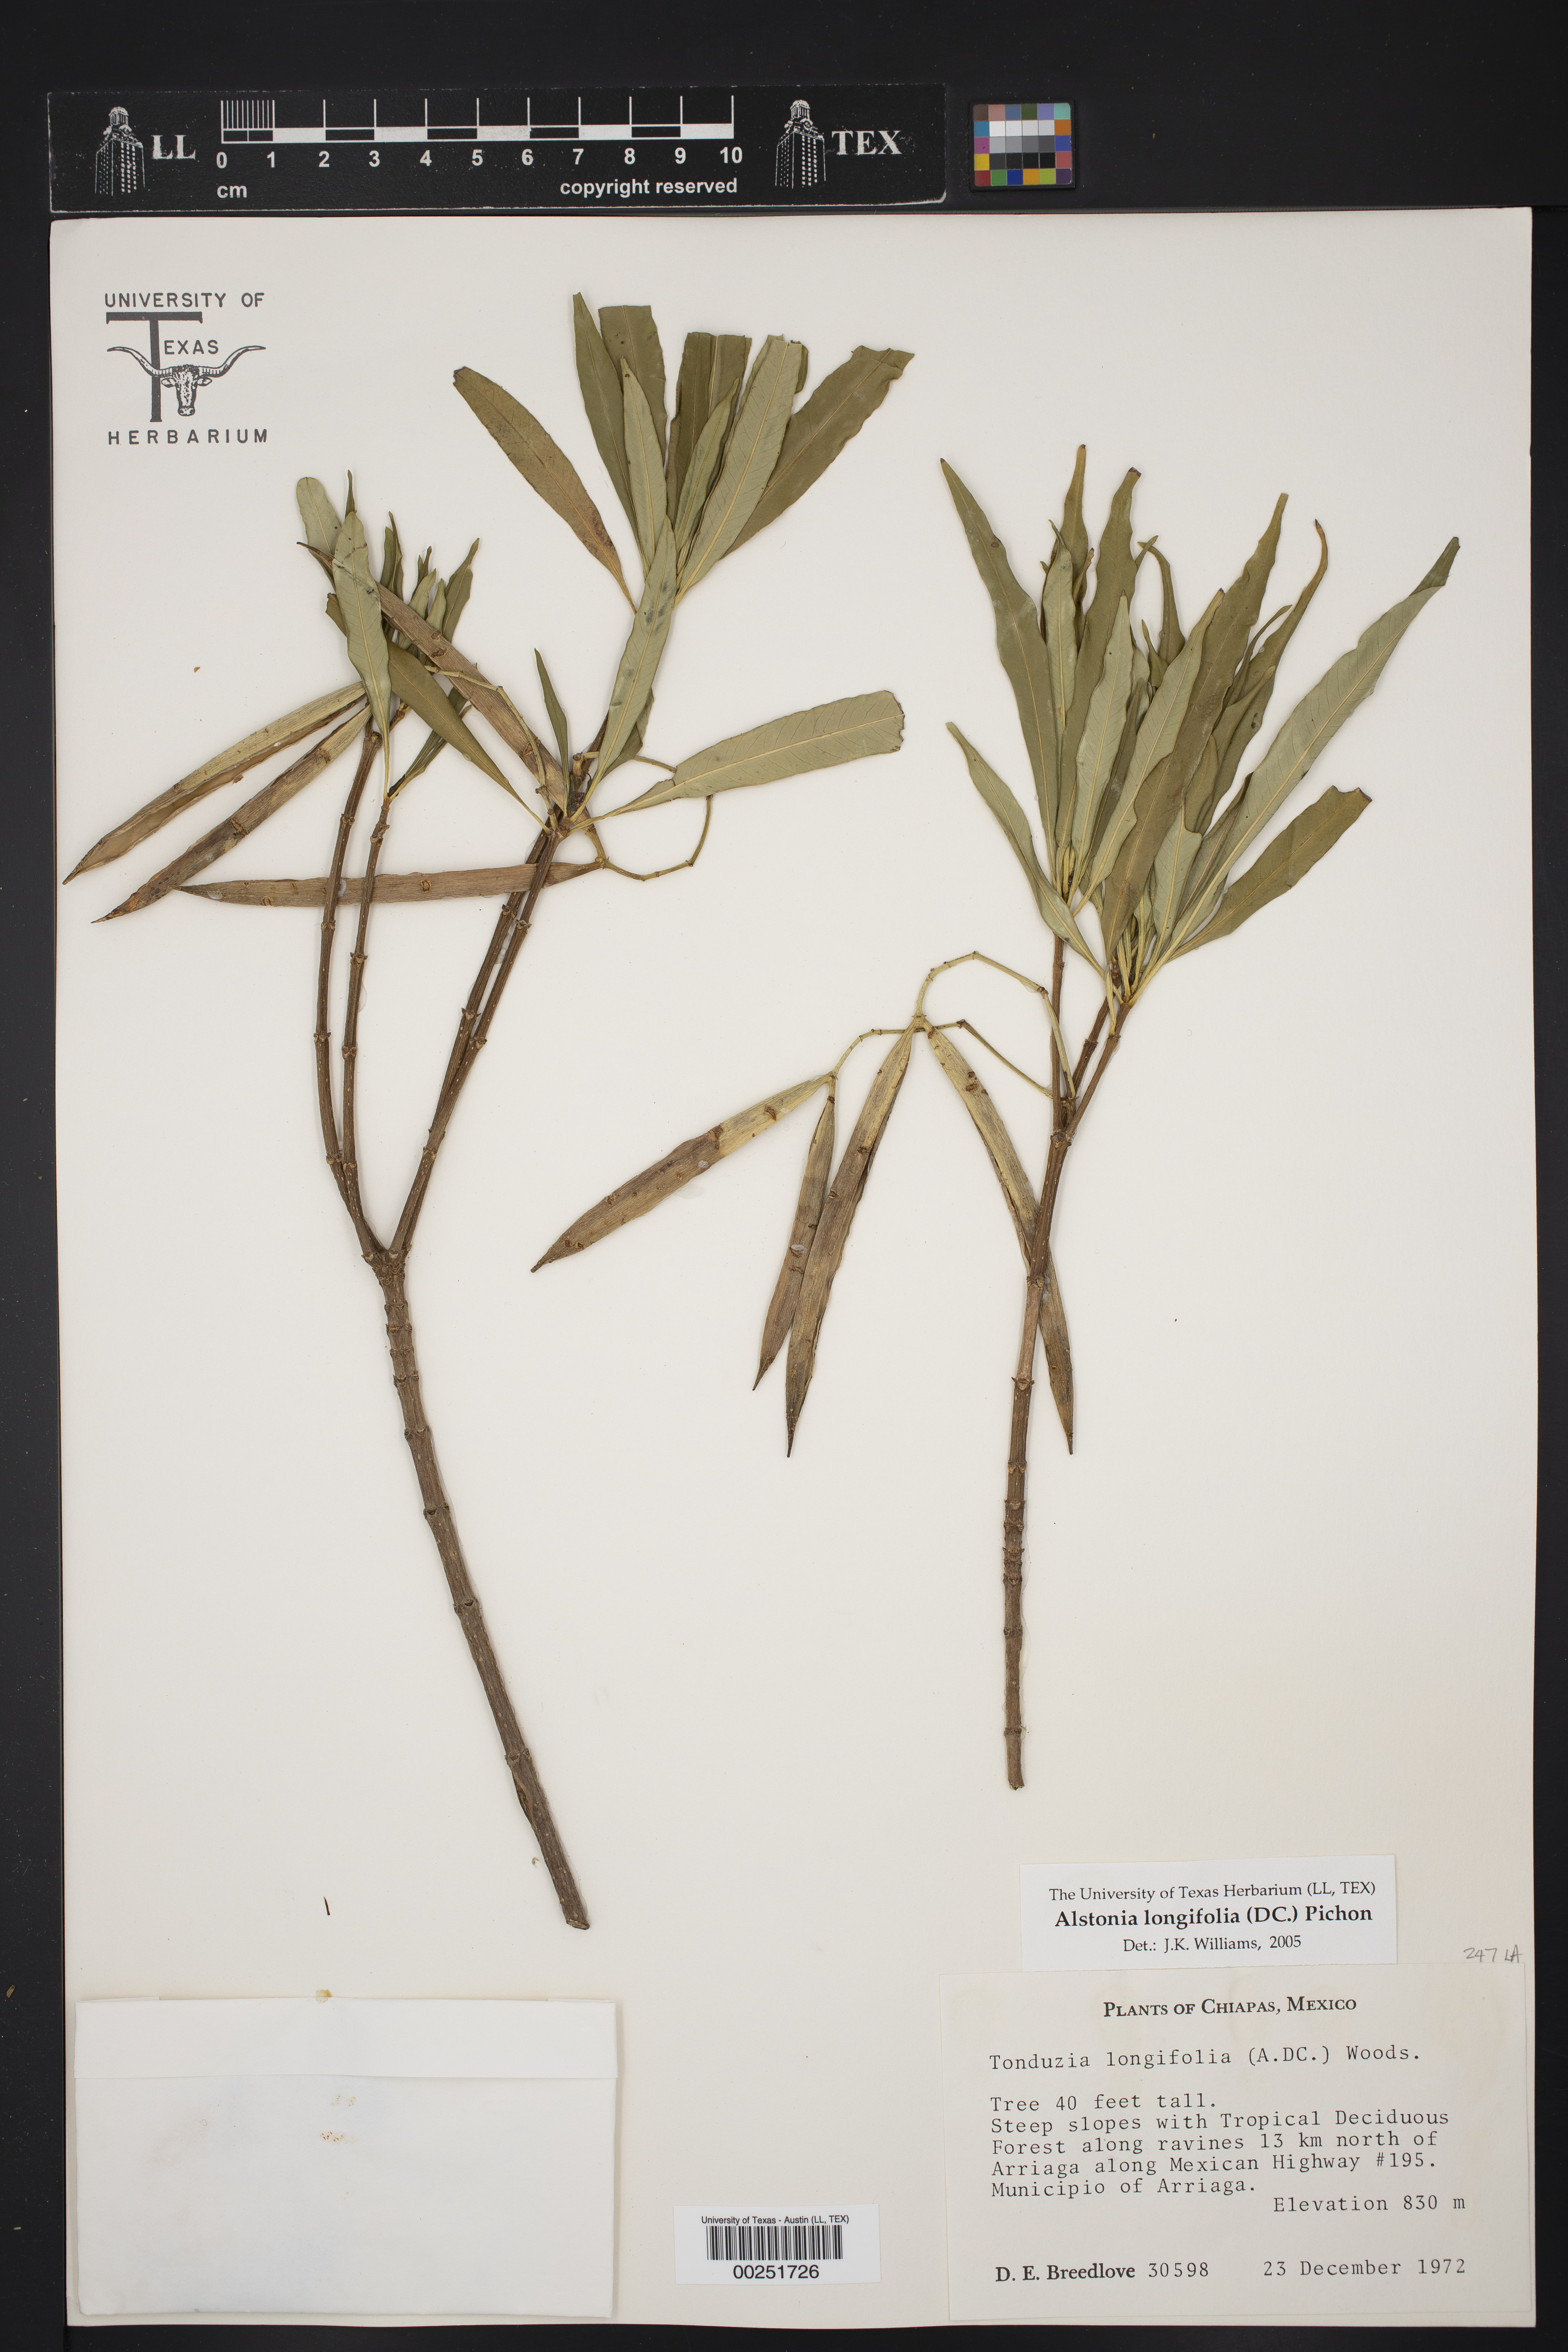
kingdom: Plantae
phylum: Tracheophyta
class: Magnoliopsida
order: Gentianales
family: Apocynaceae
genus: Tonduzia
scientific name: Tonduzia longifolia
